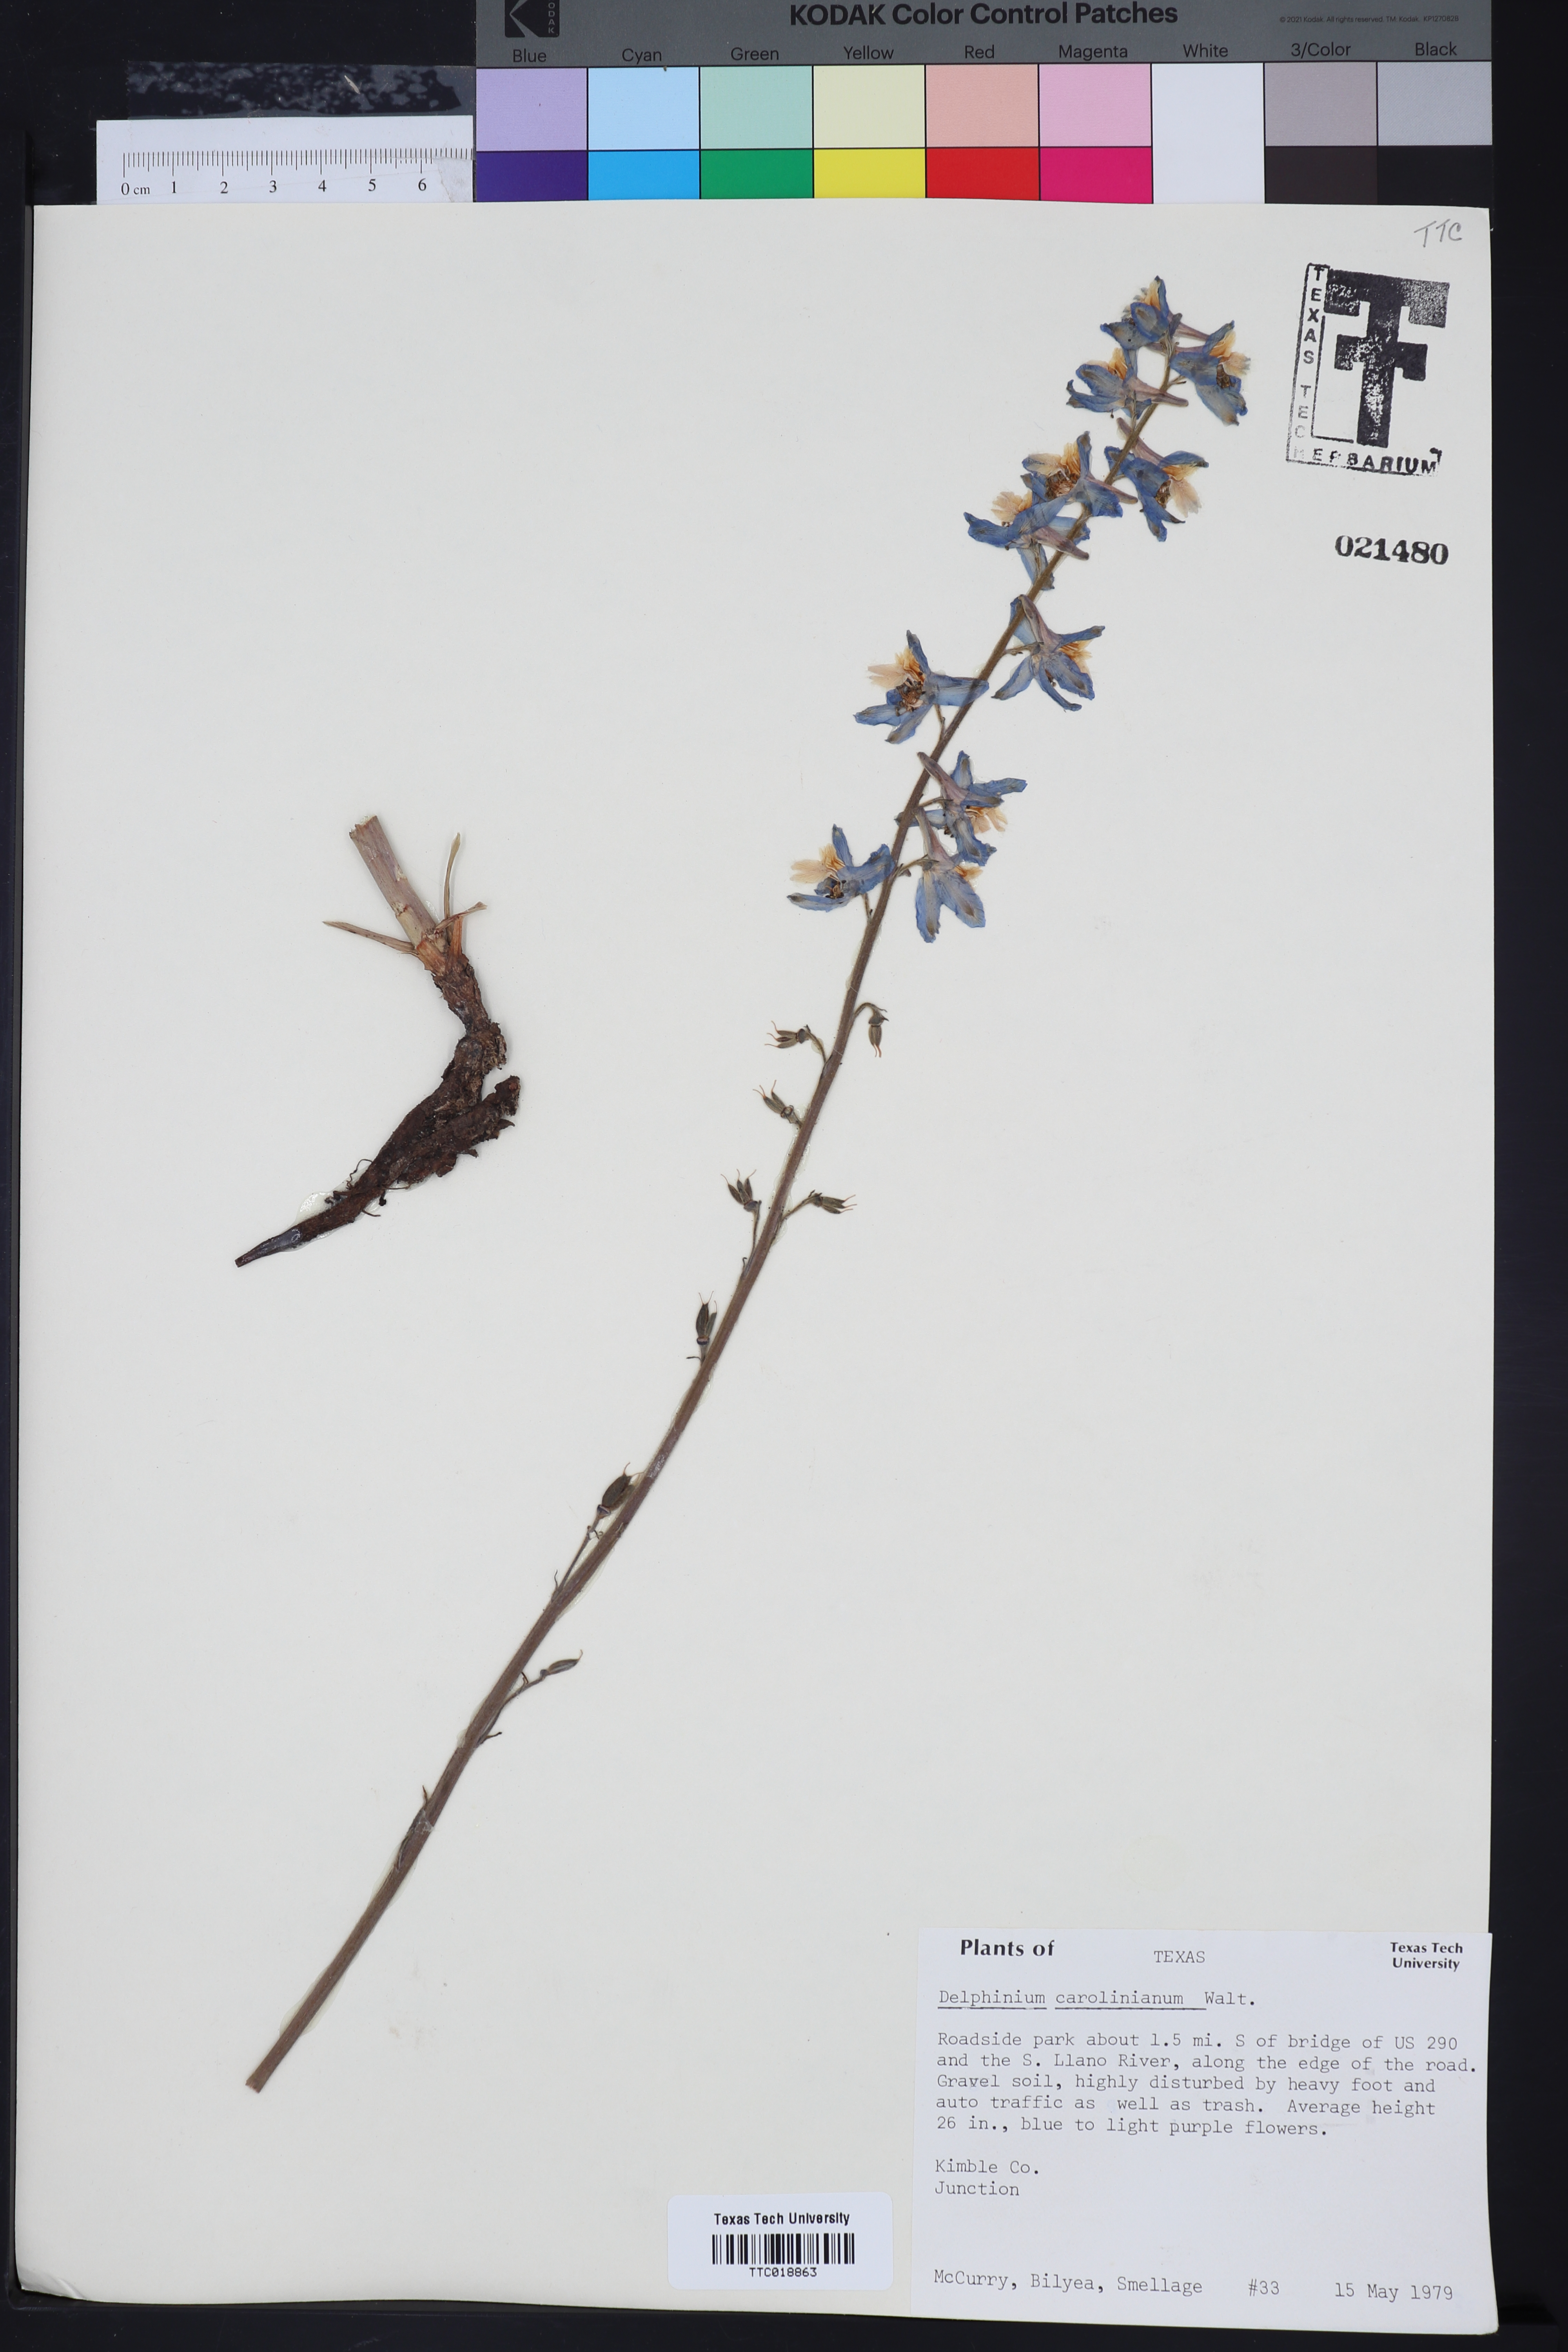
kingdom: Plantae
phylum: Tracheophyta
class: Magnoliopsida
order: Ranunculales
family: Ranunculaceae
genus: Delphinium
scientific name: Delphinium carolinianum
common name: Carolina larkspur
